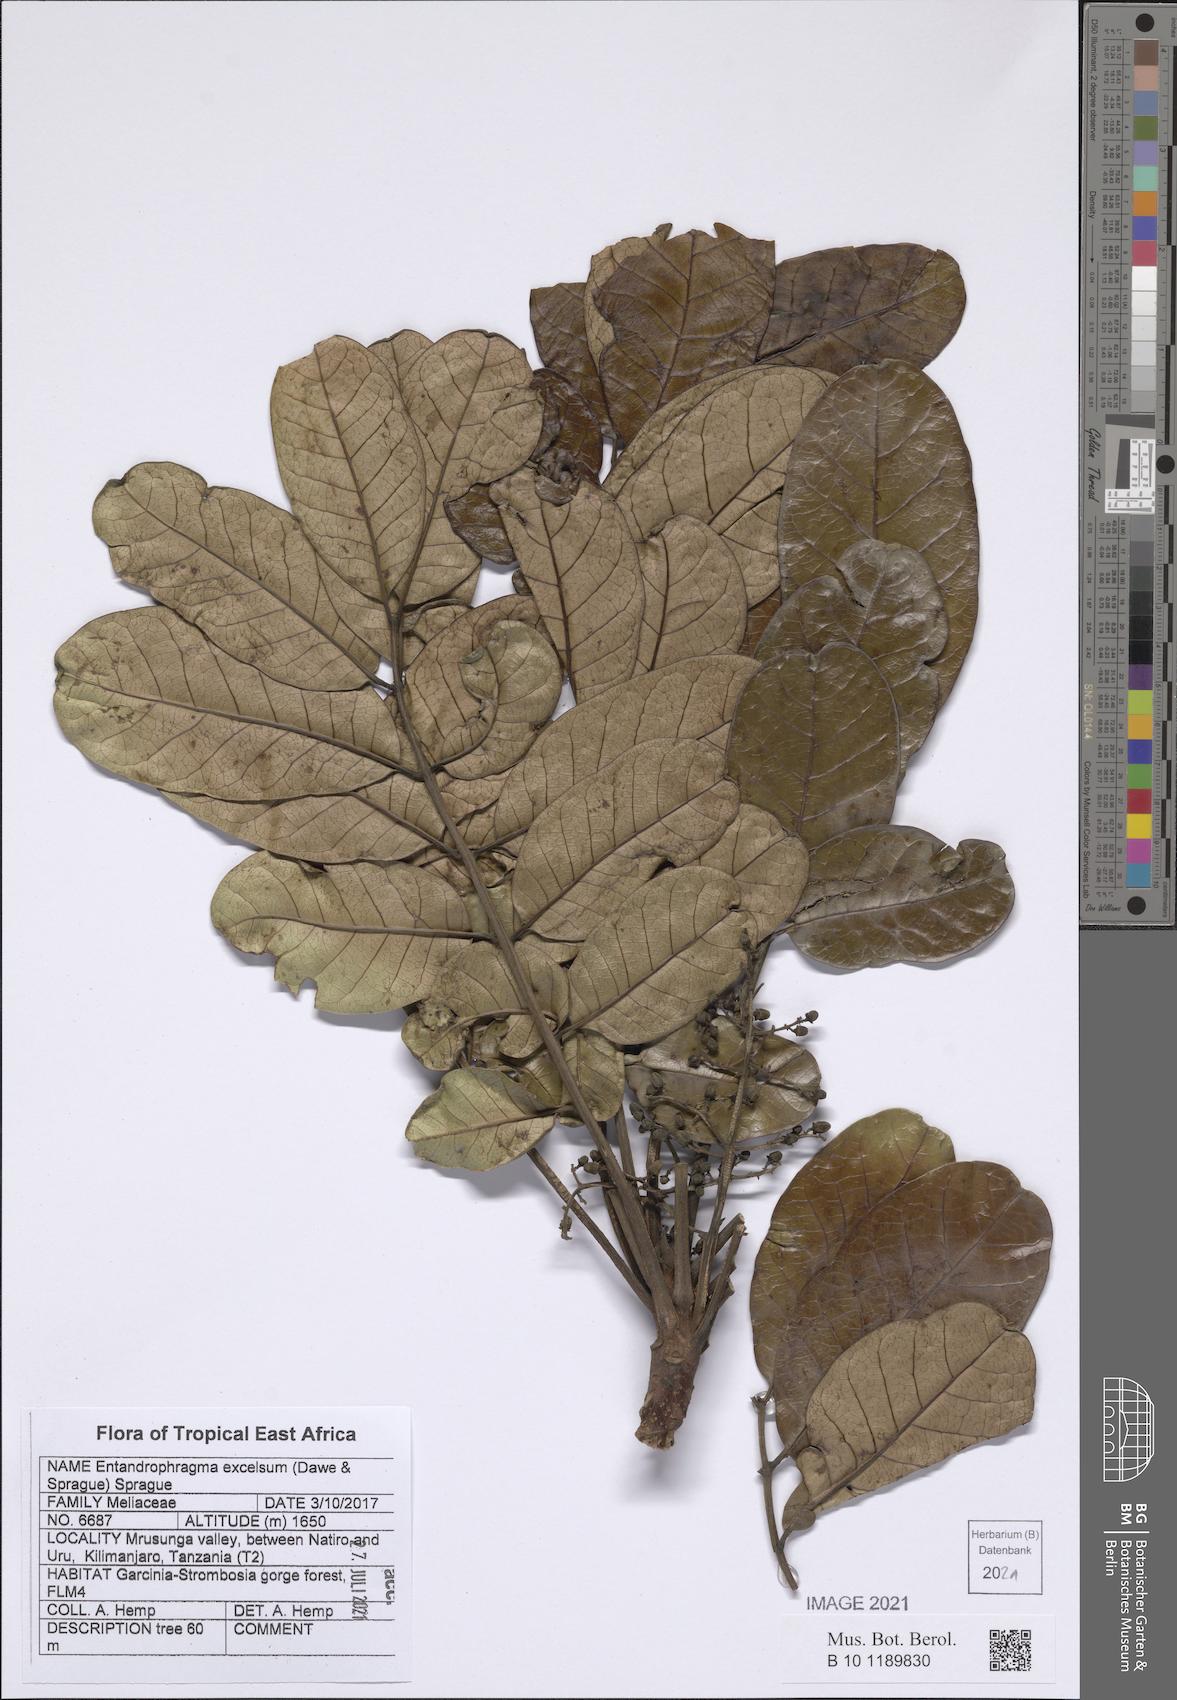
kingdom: Plantae
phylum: Tracheophyta
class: Magnoliopsida
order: Sapindales
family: Meliaceae
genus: Entandrophragma
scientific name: Entandrophragma excelsum
